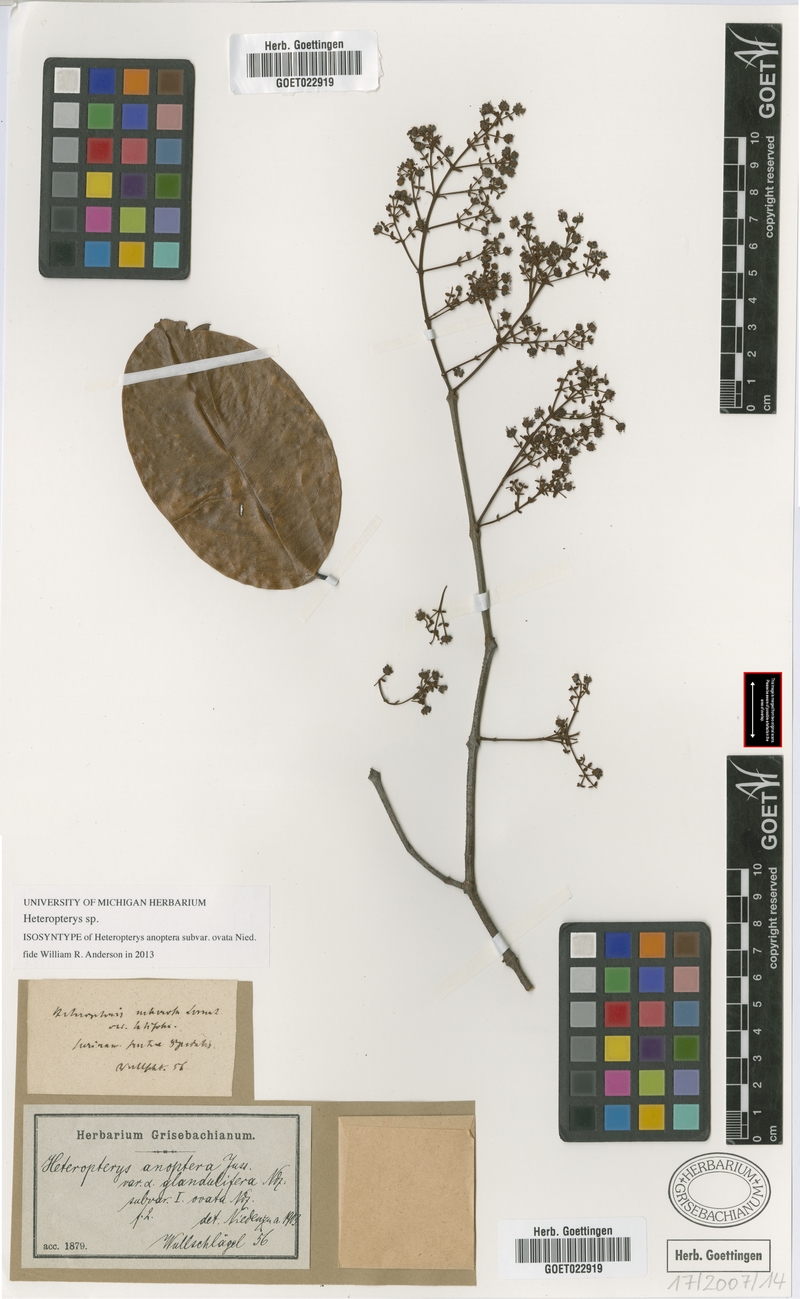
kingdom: Plantae
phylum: Tracheophyta
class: Magnoliopsida
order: Malpighiales
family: Malpighiaceae
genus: Heteropterys
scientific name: Heteropterys
